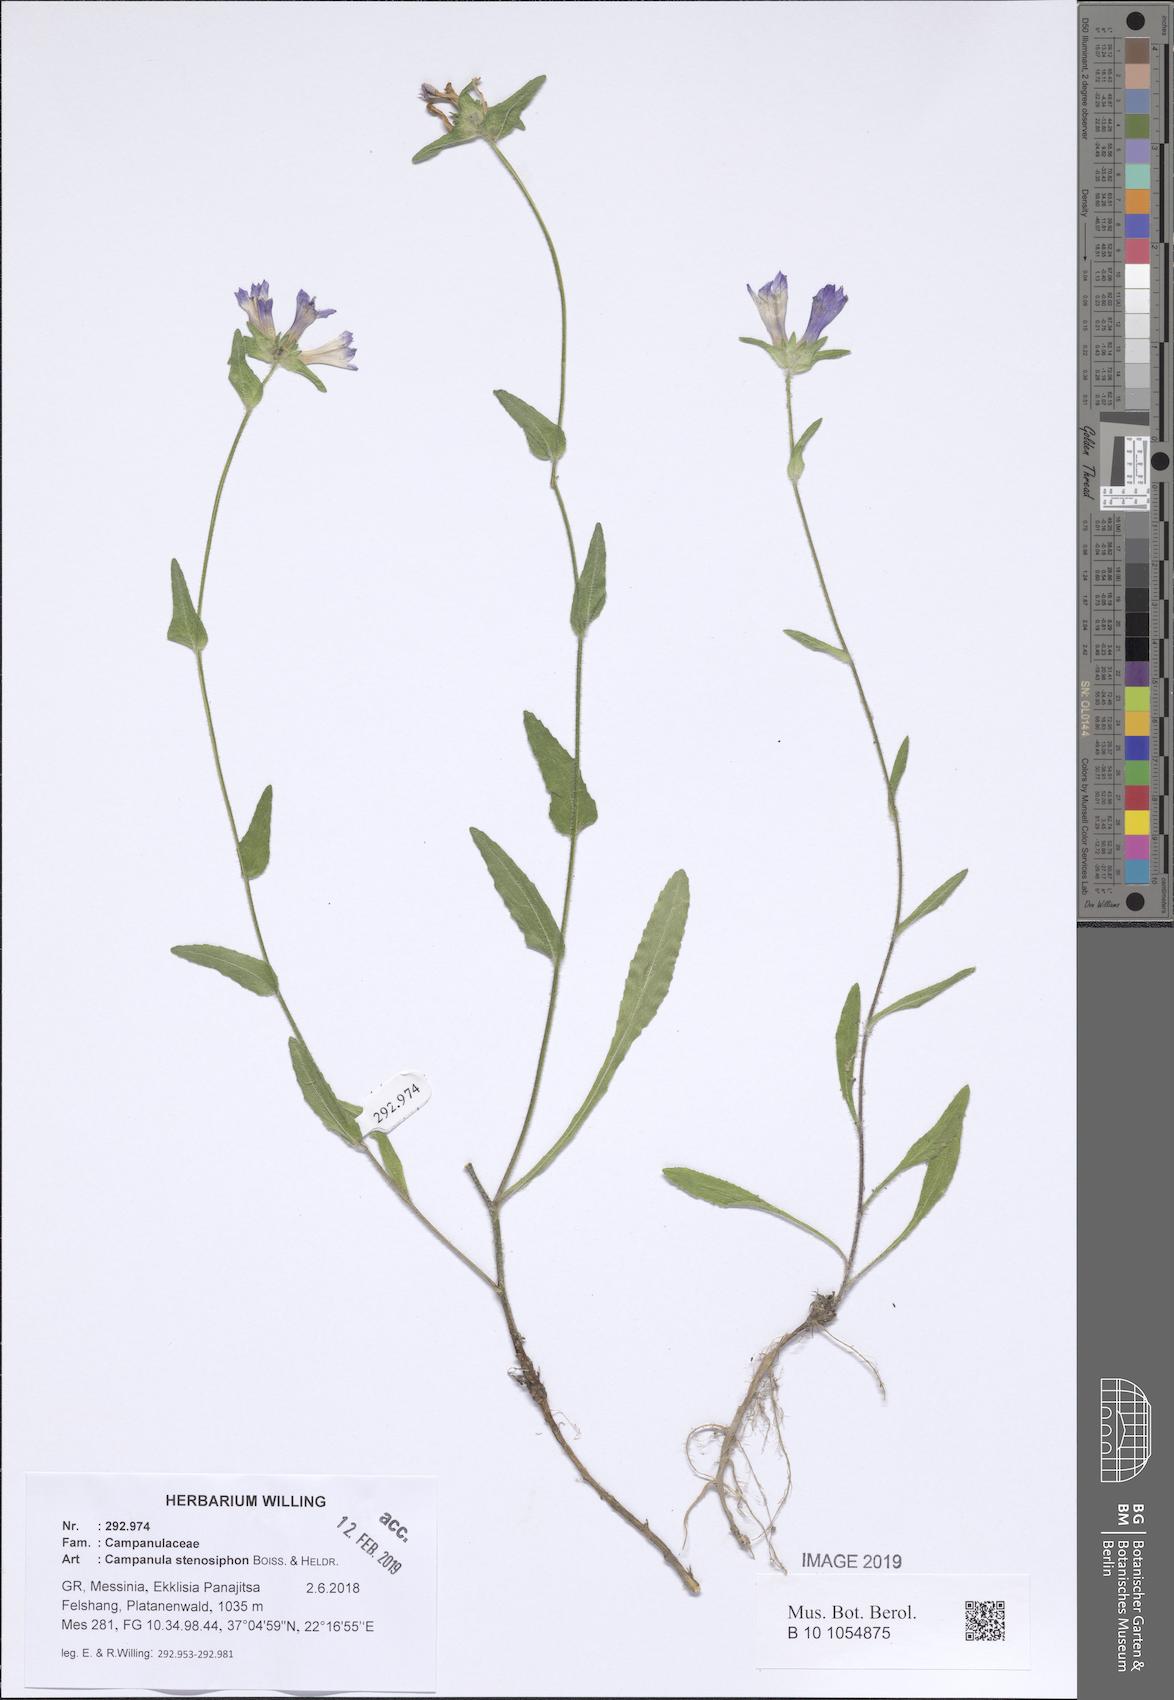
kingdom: Plantae
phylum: Tracheophyta
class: Magnoliopsida
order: Asterales
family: Campanulaceae
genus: Campanula
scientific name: Campanula stenosiphon
